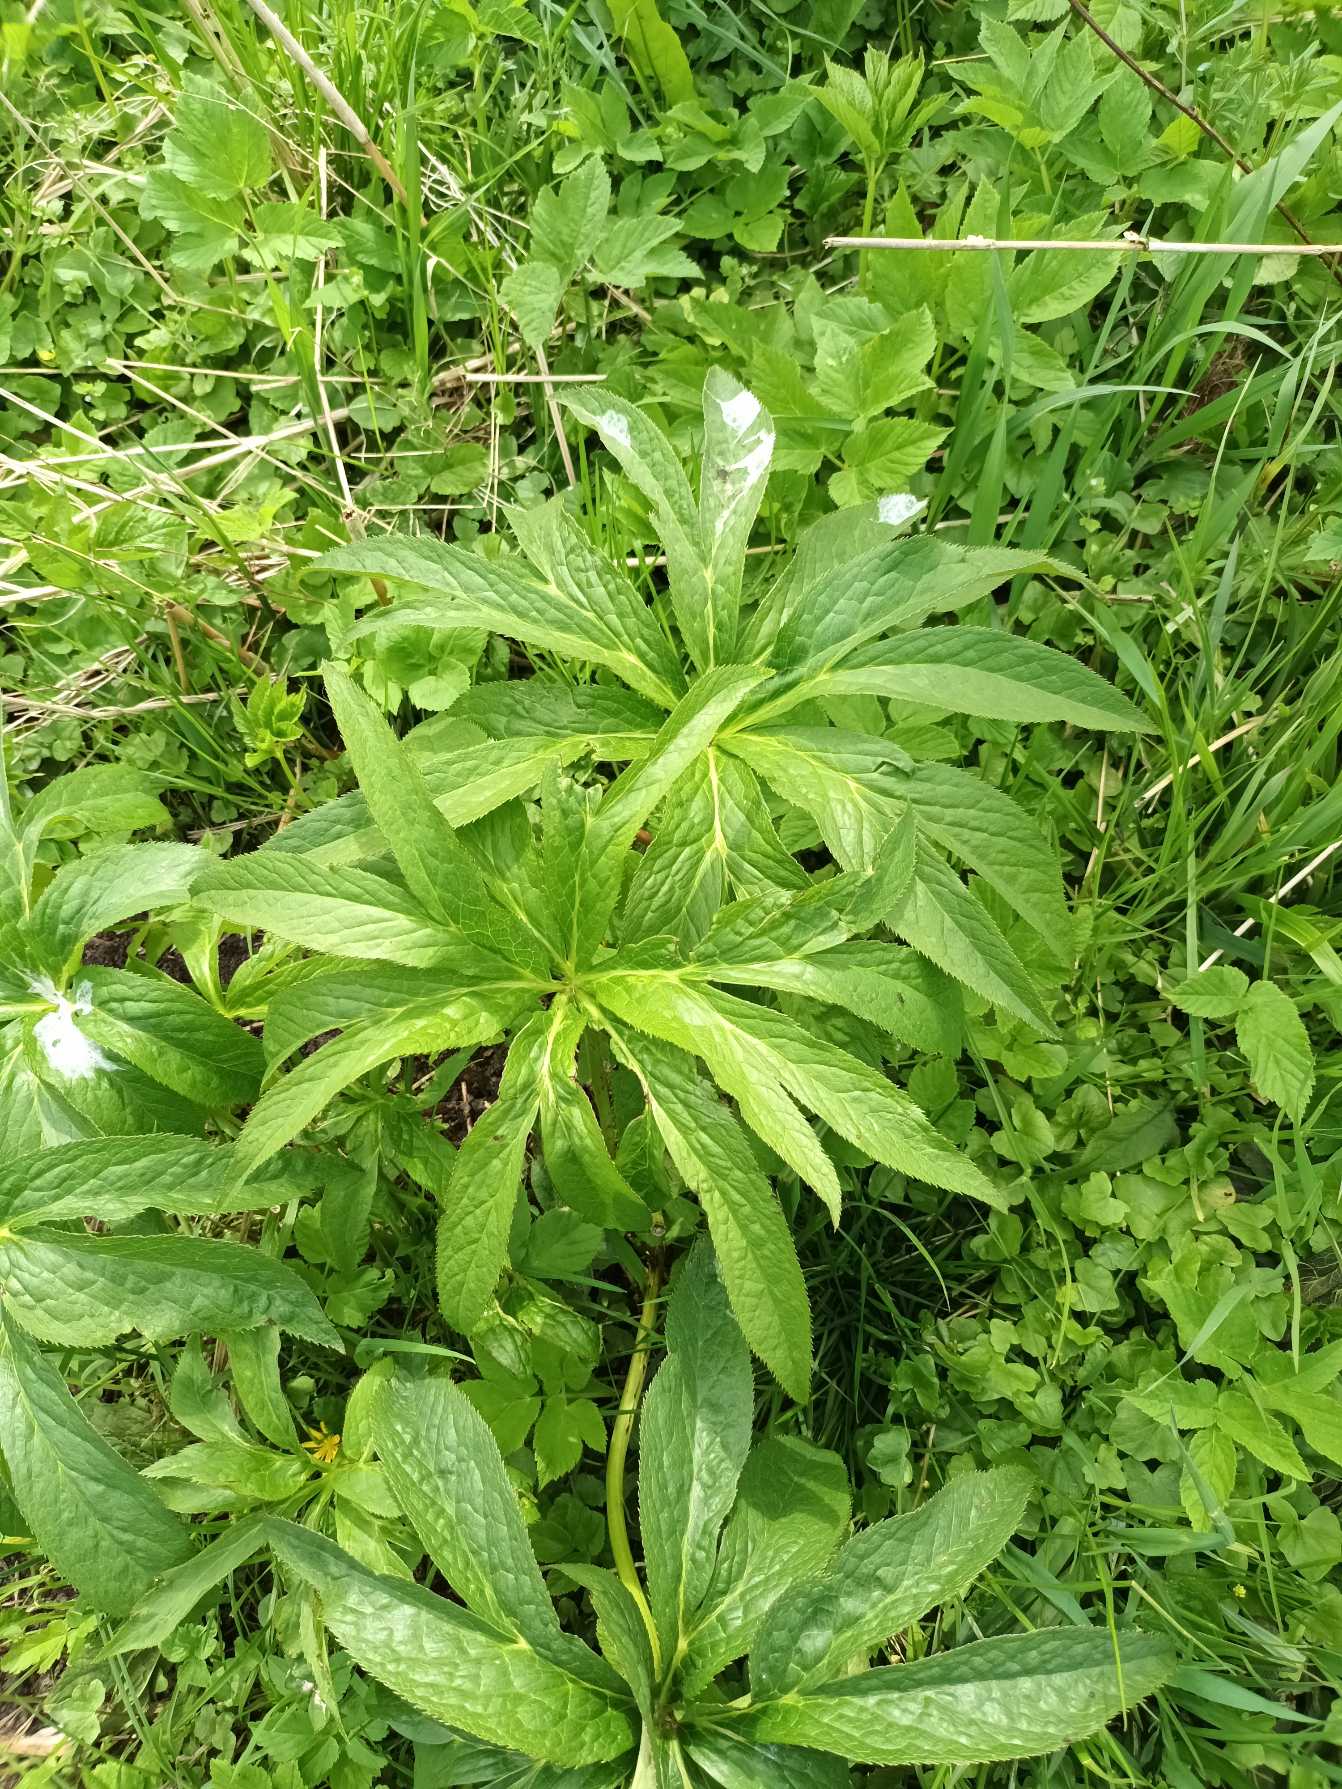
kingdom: Plantae
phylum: Tracheophyta
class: Magnoliopsida
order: Ranunculales
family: Ranunculaceae
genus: Helleborus
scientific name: Helleborus orientalis
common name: Rød julerose
